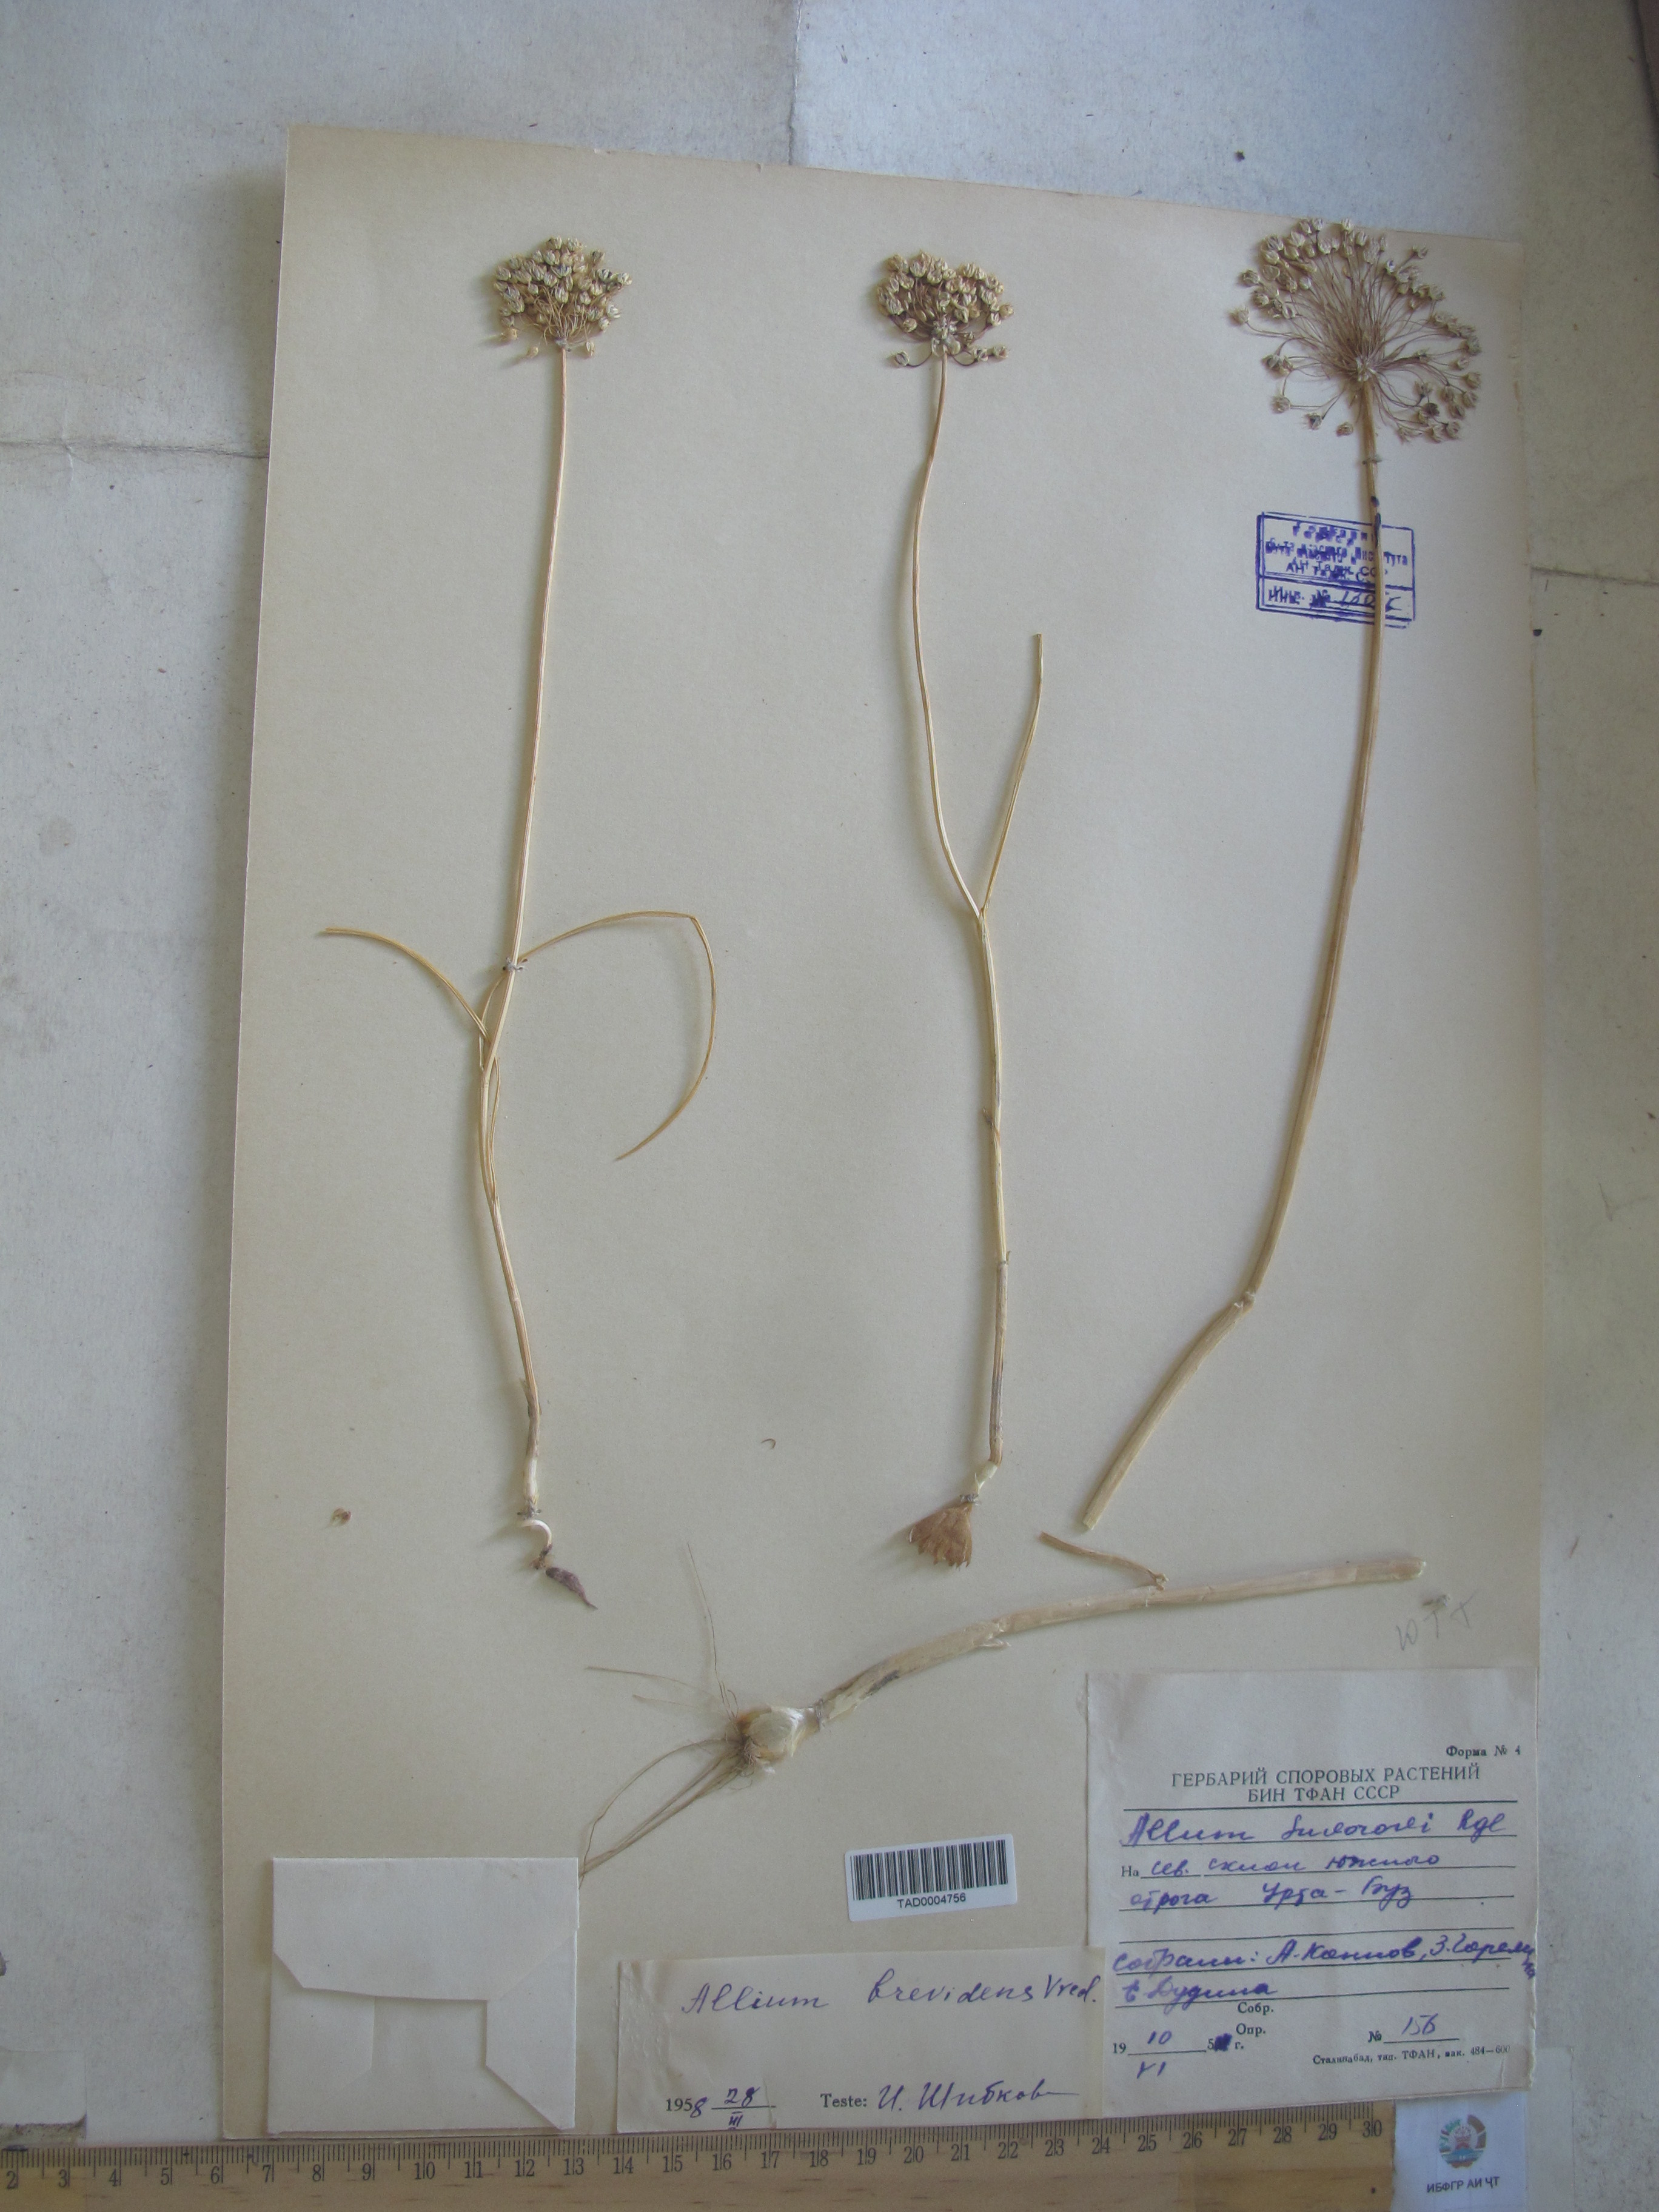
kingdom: Plantae
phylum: Tracheophyta
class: Liliopsida
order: Asparagales
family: Amaryllidaceae
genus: Allium
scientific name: Allium brevidens
